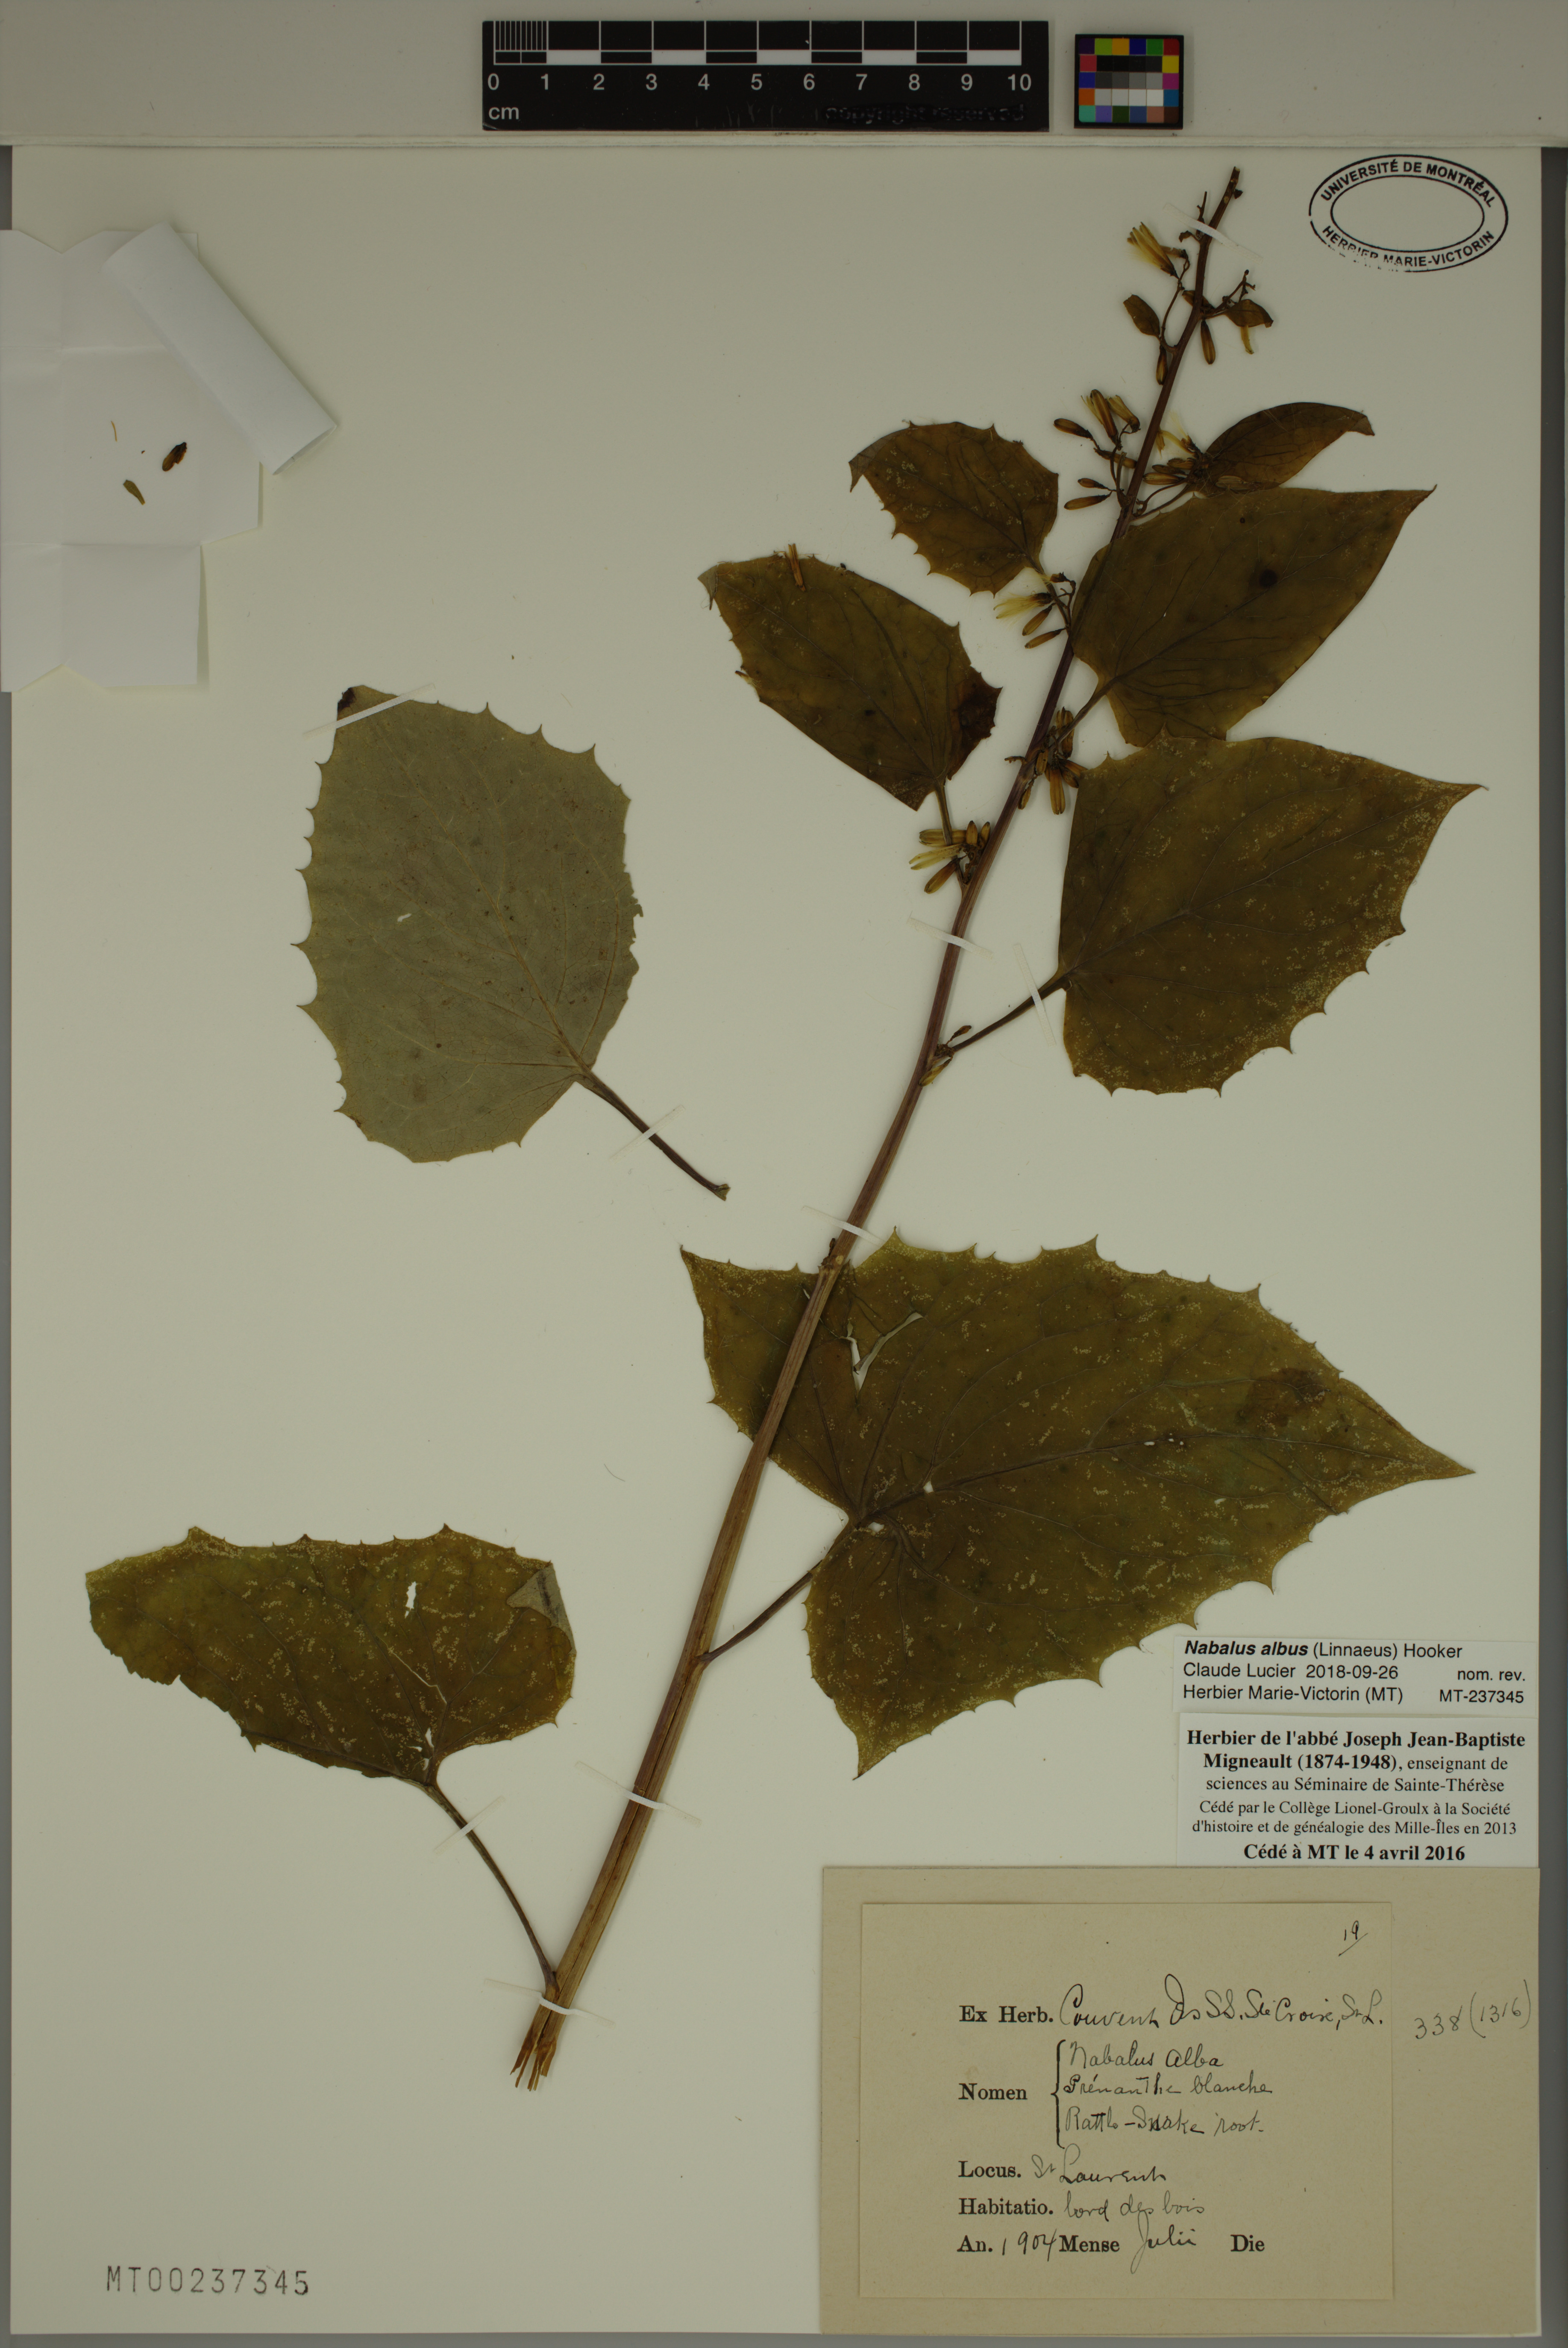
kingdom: Plantae
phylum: Tracheophyta
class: Magnoliopsida
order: Asterales
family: Asteraceae
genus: Nabalus
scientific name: Nabalus albus
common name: White rattlesnakeroot
